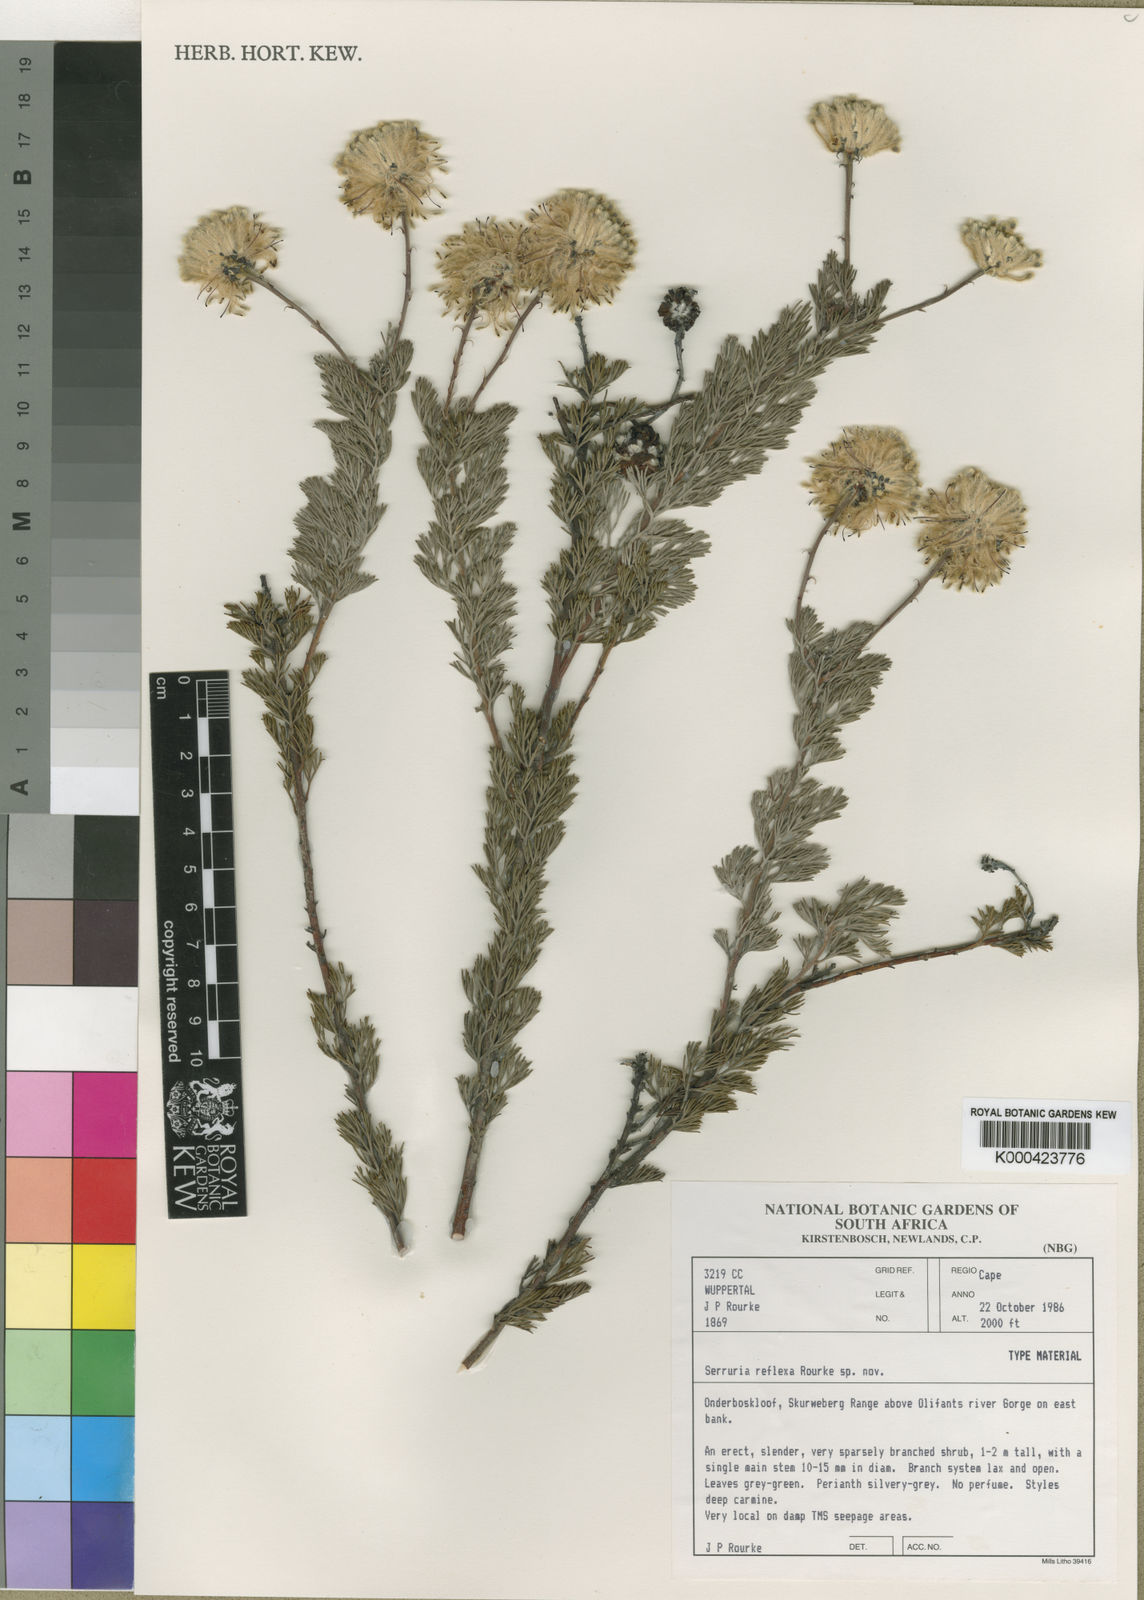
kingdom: Plantae
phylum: Tracheophyta
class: Magnoliopsida
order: Proteales
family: Proteaceae
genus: Serruria
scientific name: Serruria reflexa
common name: Milky spiderhead
